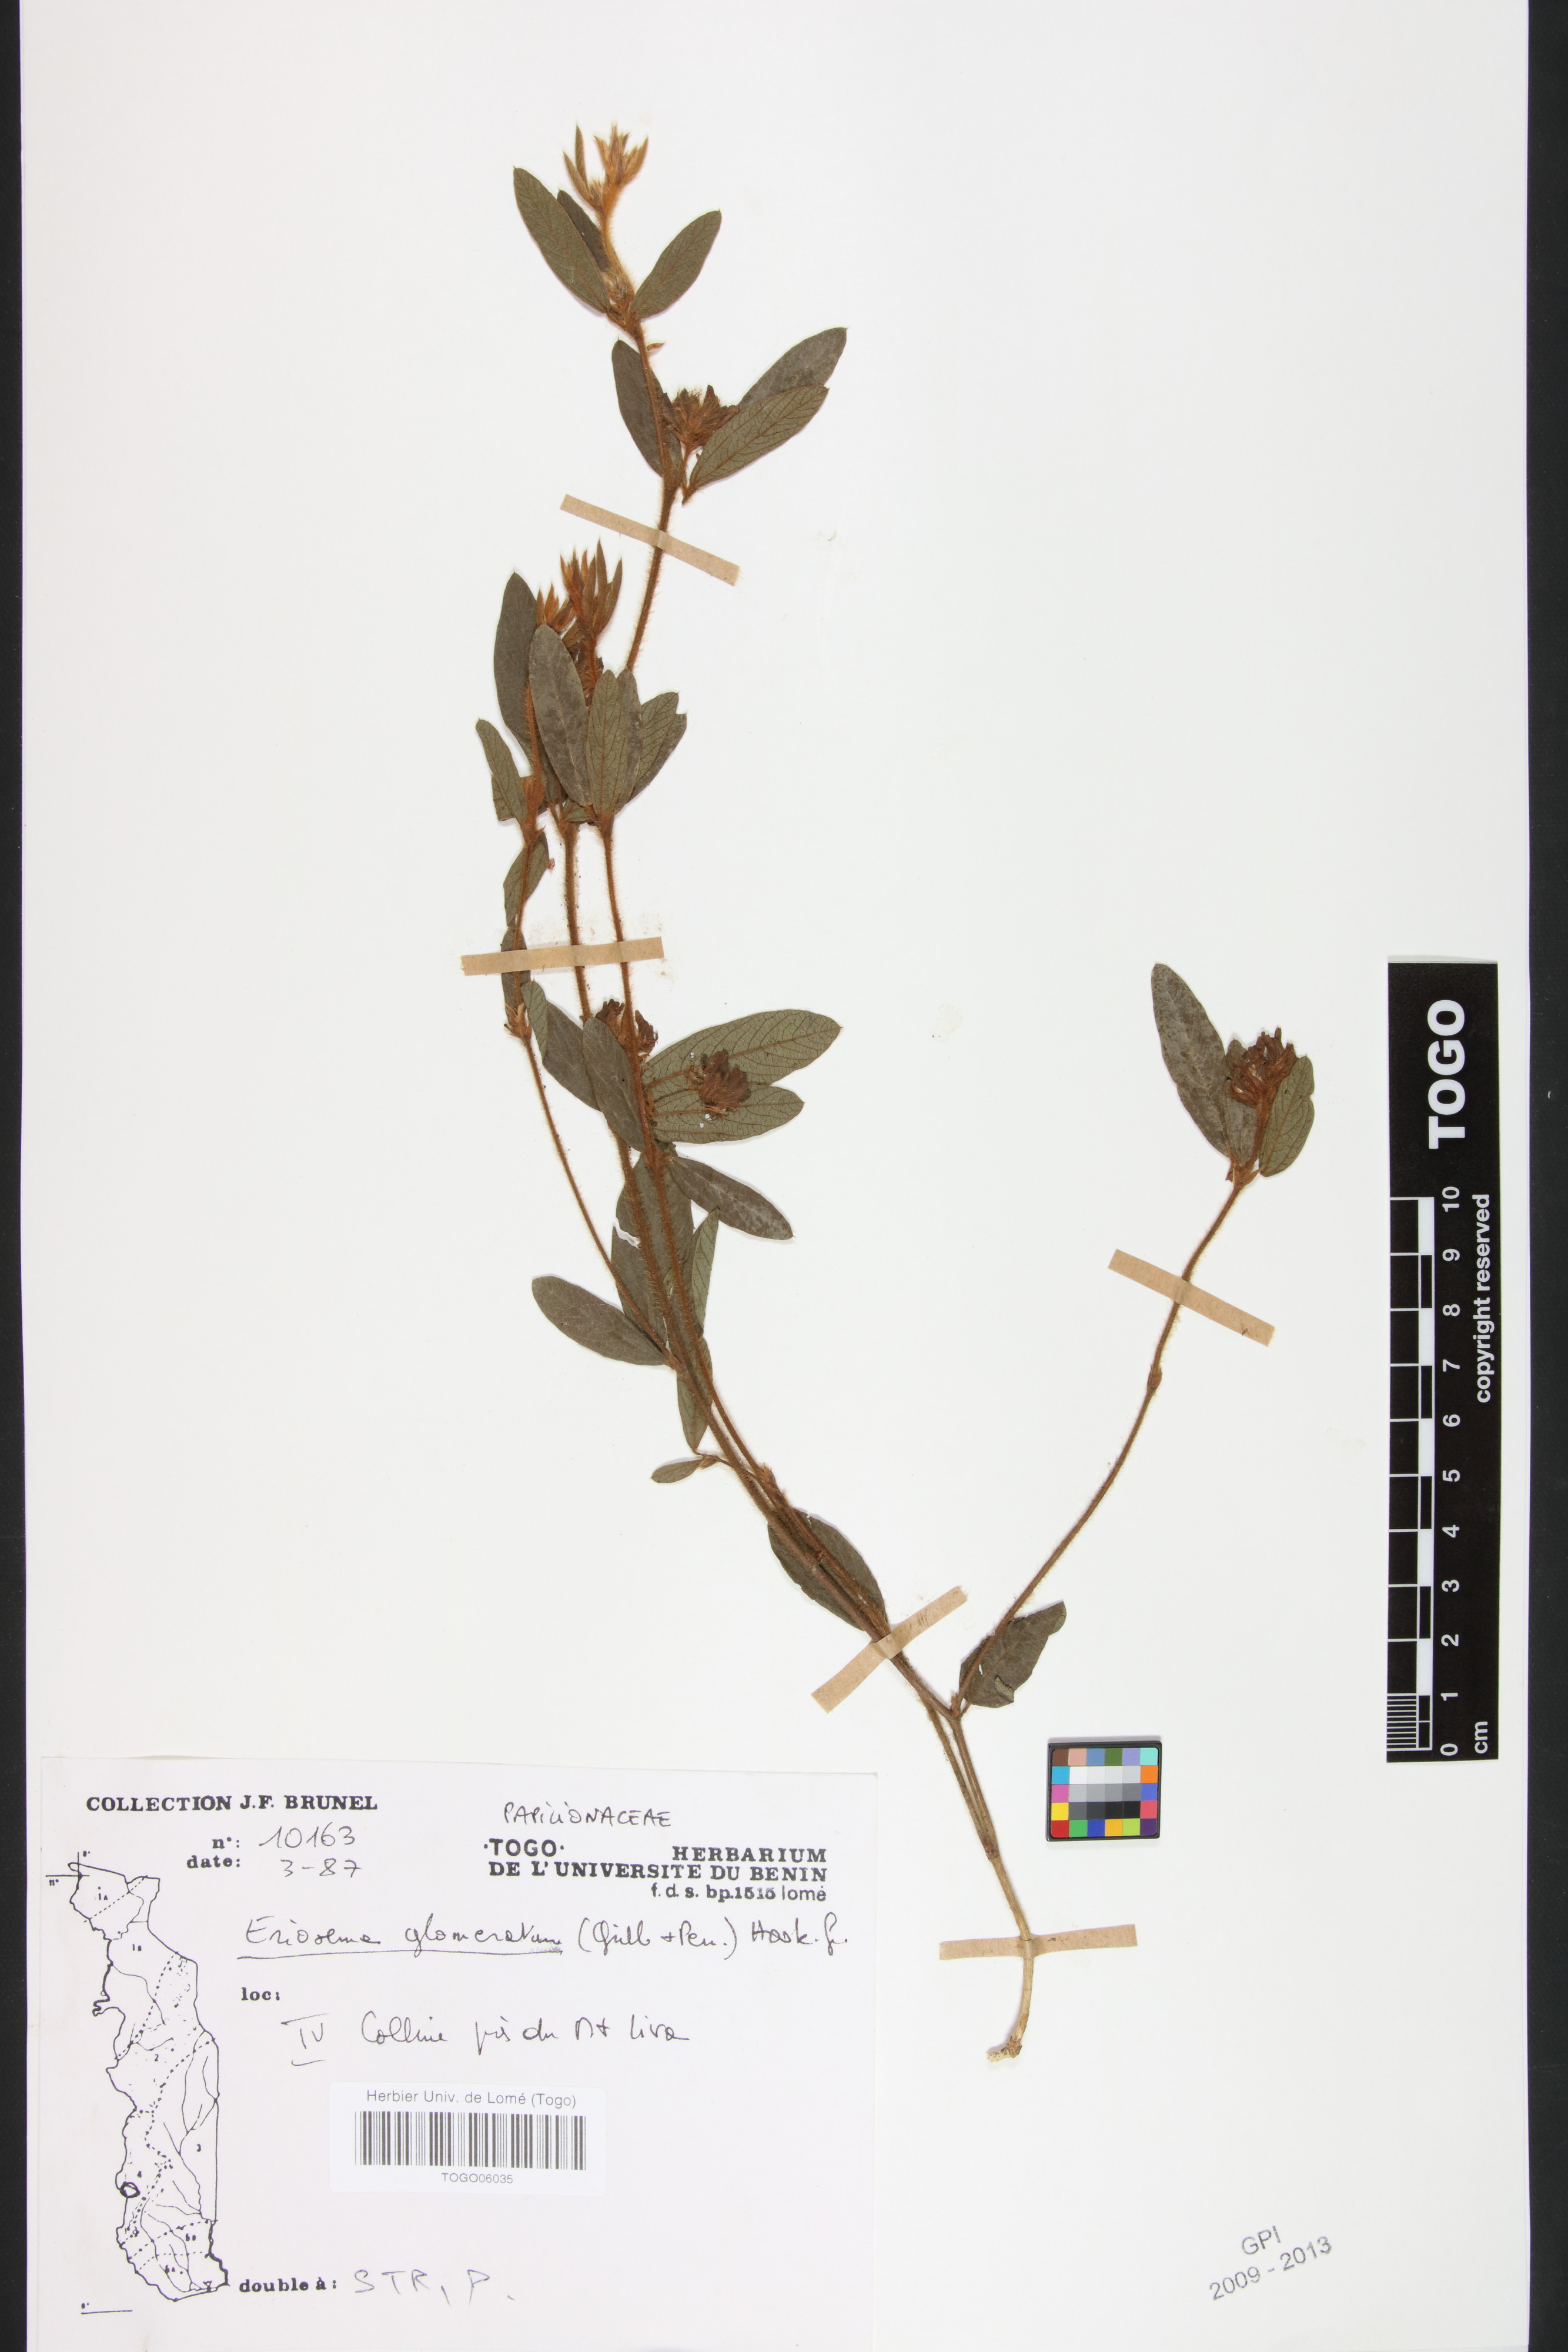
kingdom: Plantae
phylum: Tracheophyta
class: Magnoliopsida
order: Fabales
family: Fabaceae
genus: Eriosema
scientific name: Eriosema glomeratum
